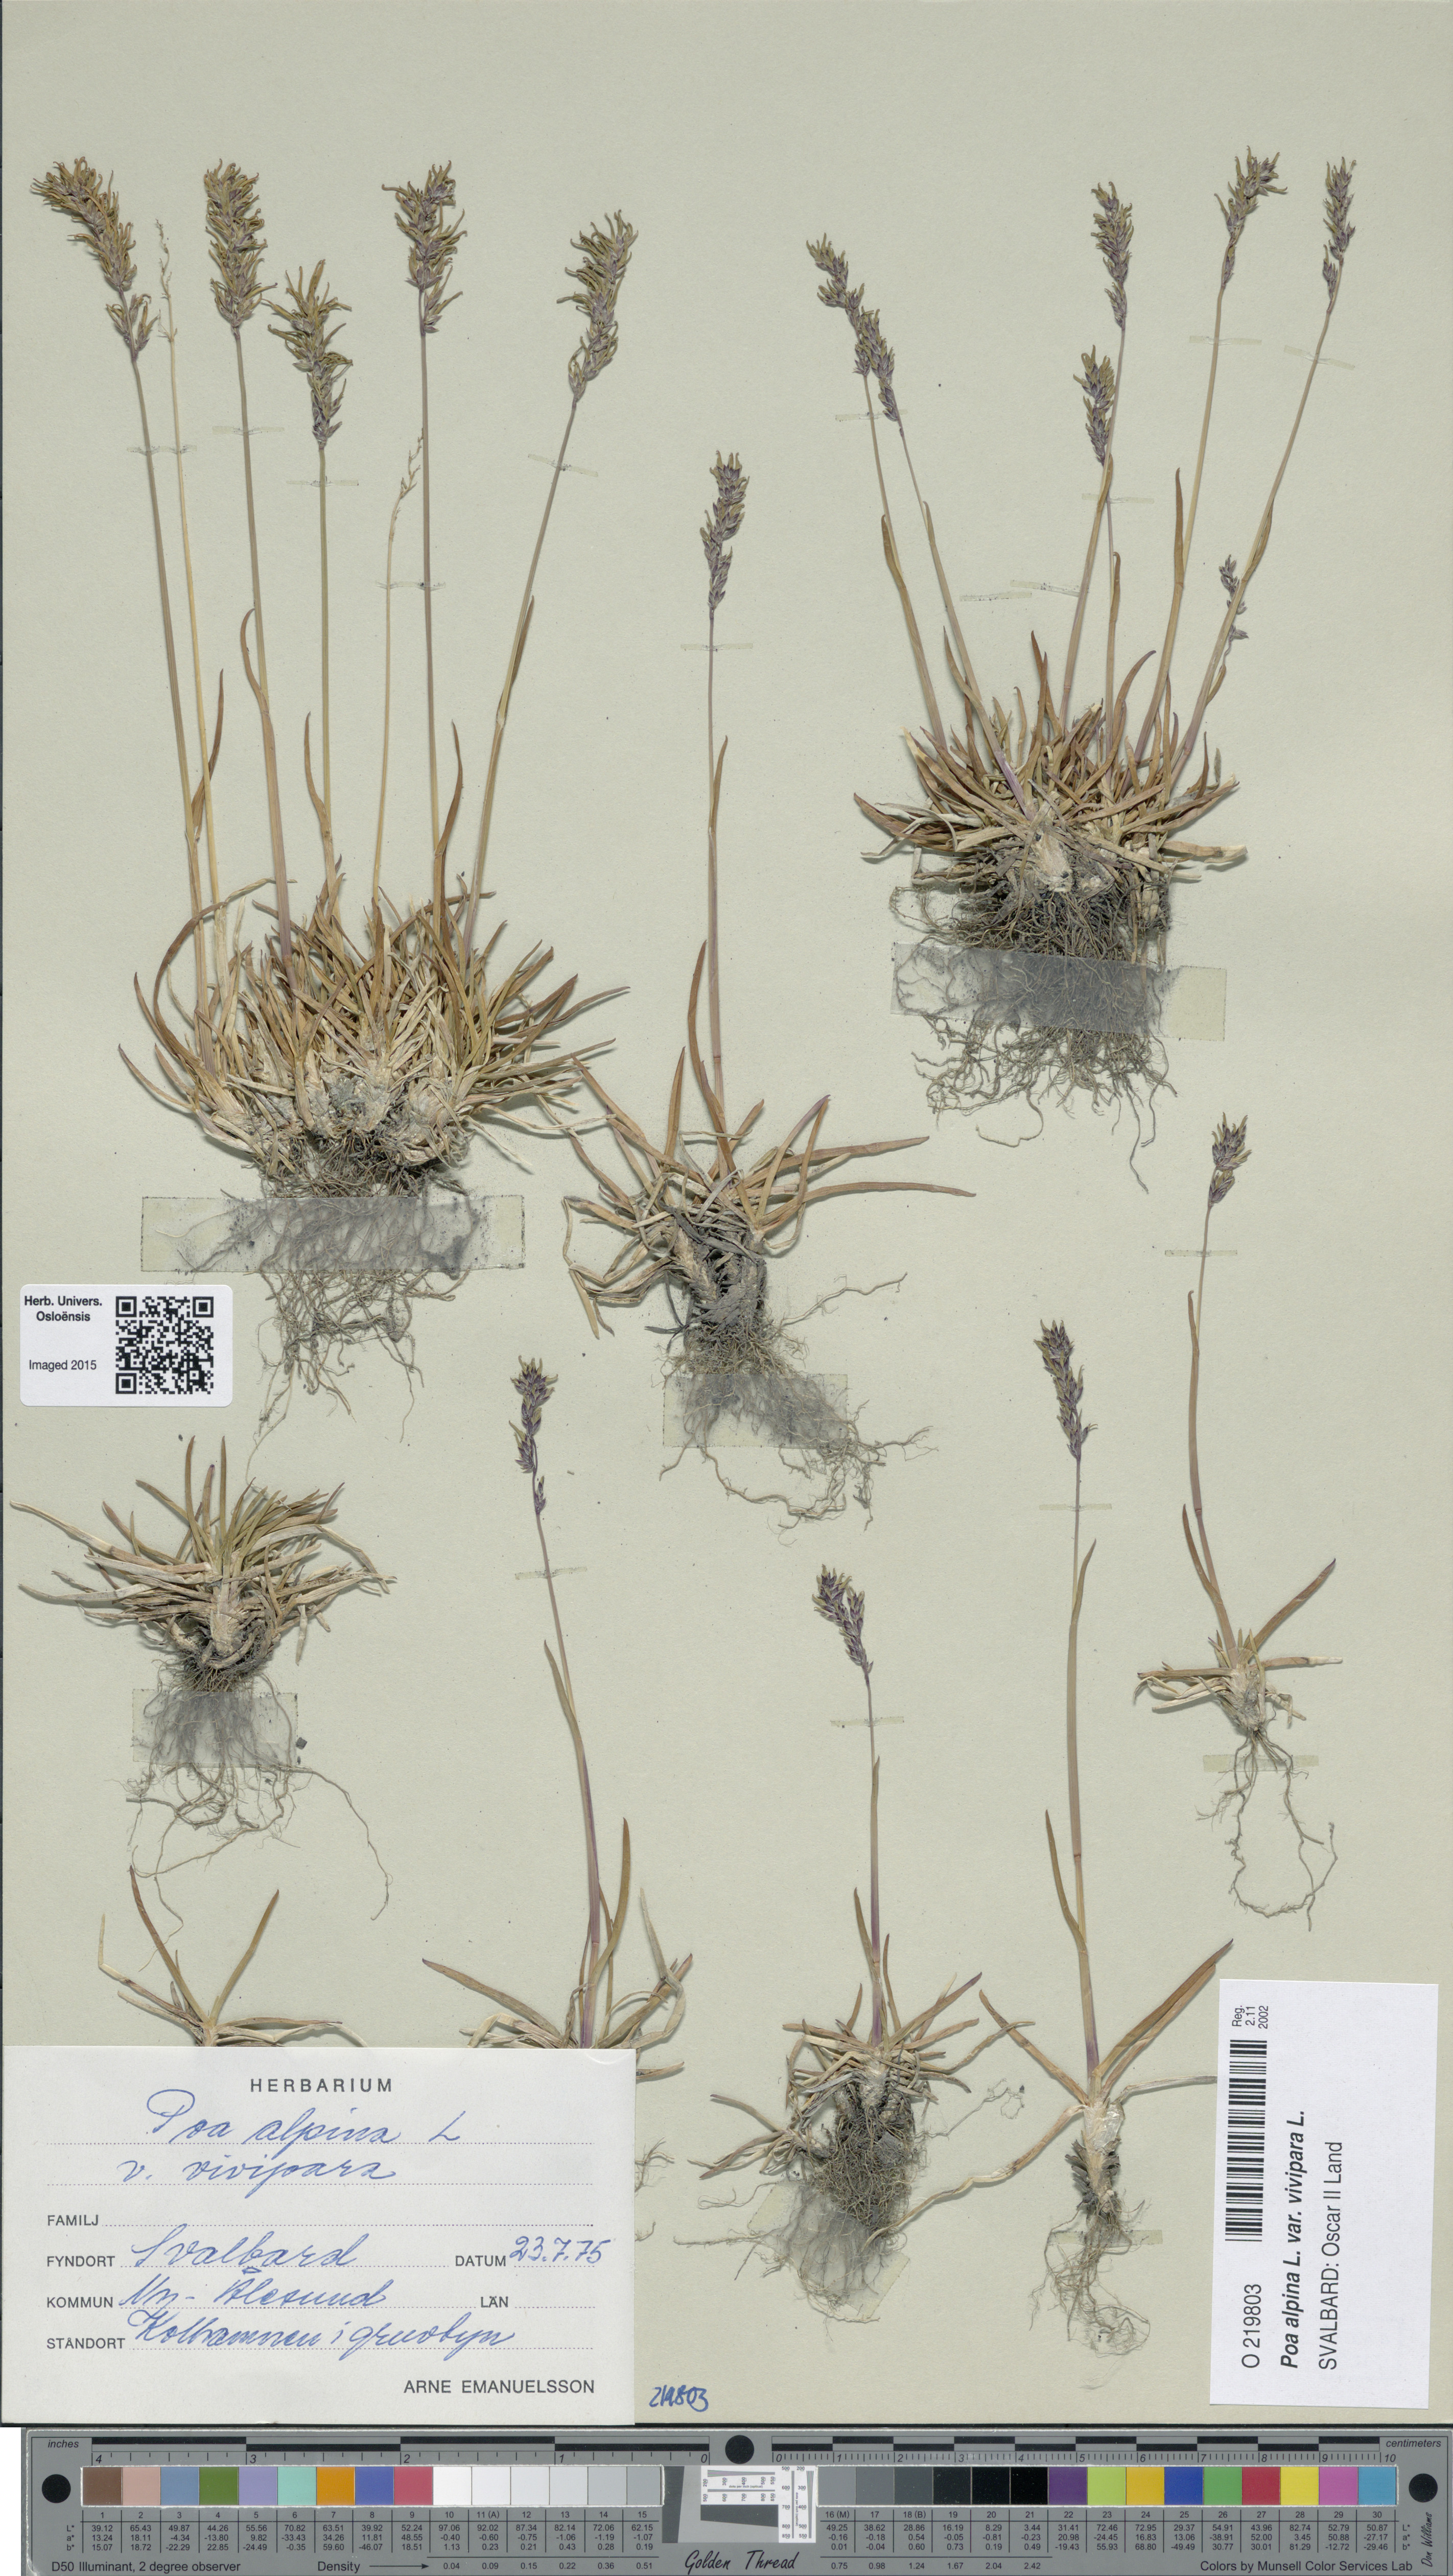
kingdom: Plantae
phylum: Tracheophyta
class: Liliopsida
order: Poales
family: Poaceae
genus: Poa
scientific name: Poa alpina
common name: Alpine bluegrass
